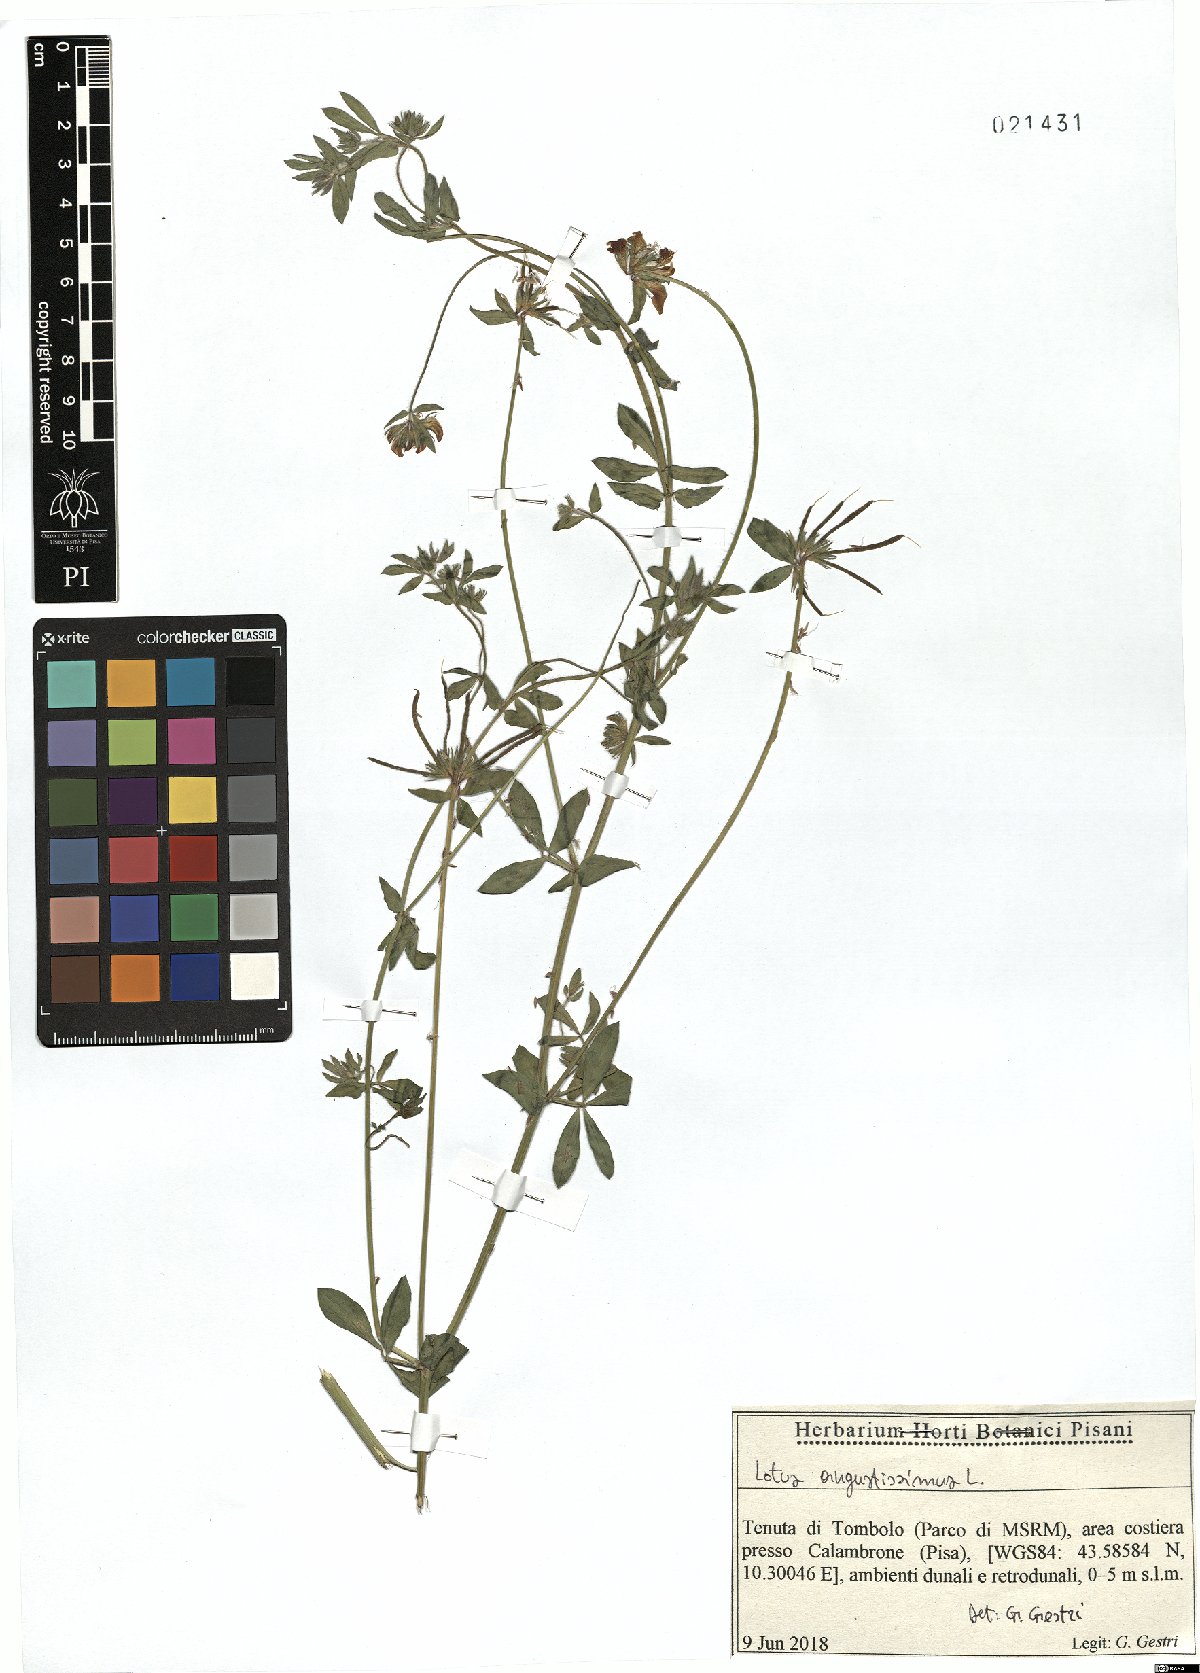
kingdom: Plantae
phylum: Tracheophyta
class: Magnoliopsida
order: Fabales
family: Fabaceae
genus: Lotus
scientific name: Lotus angustissimus
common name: Slender bird's-foot trefoil
